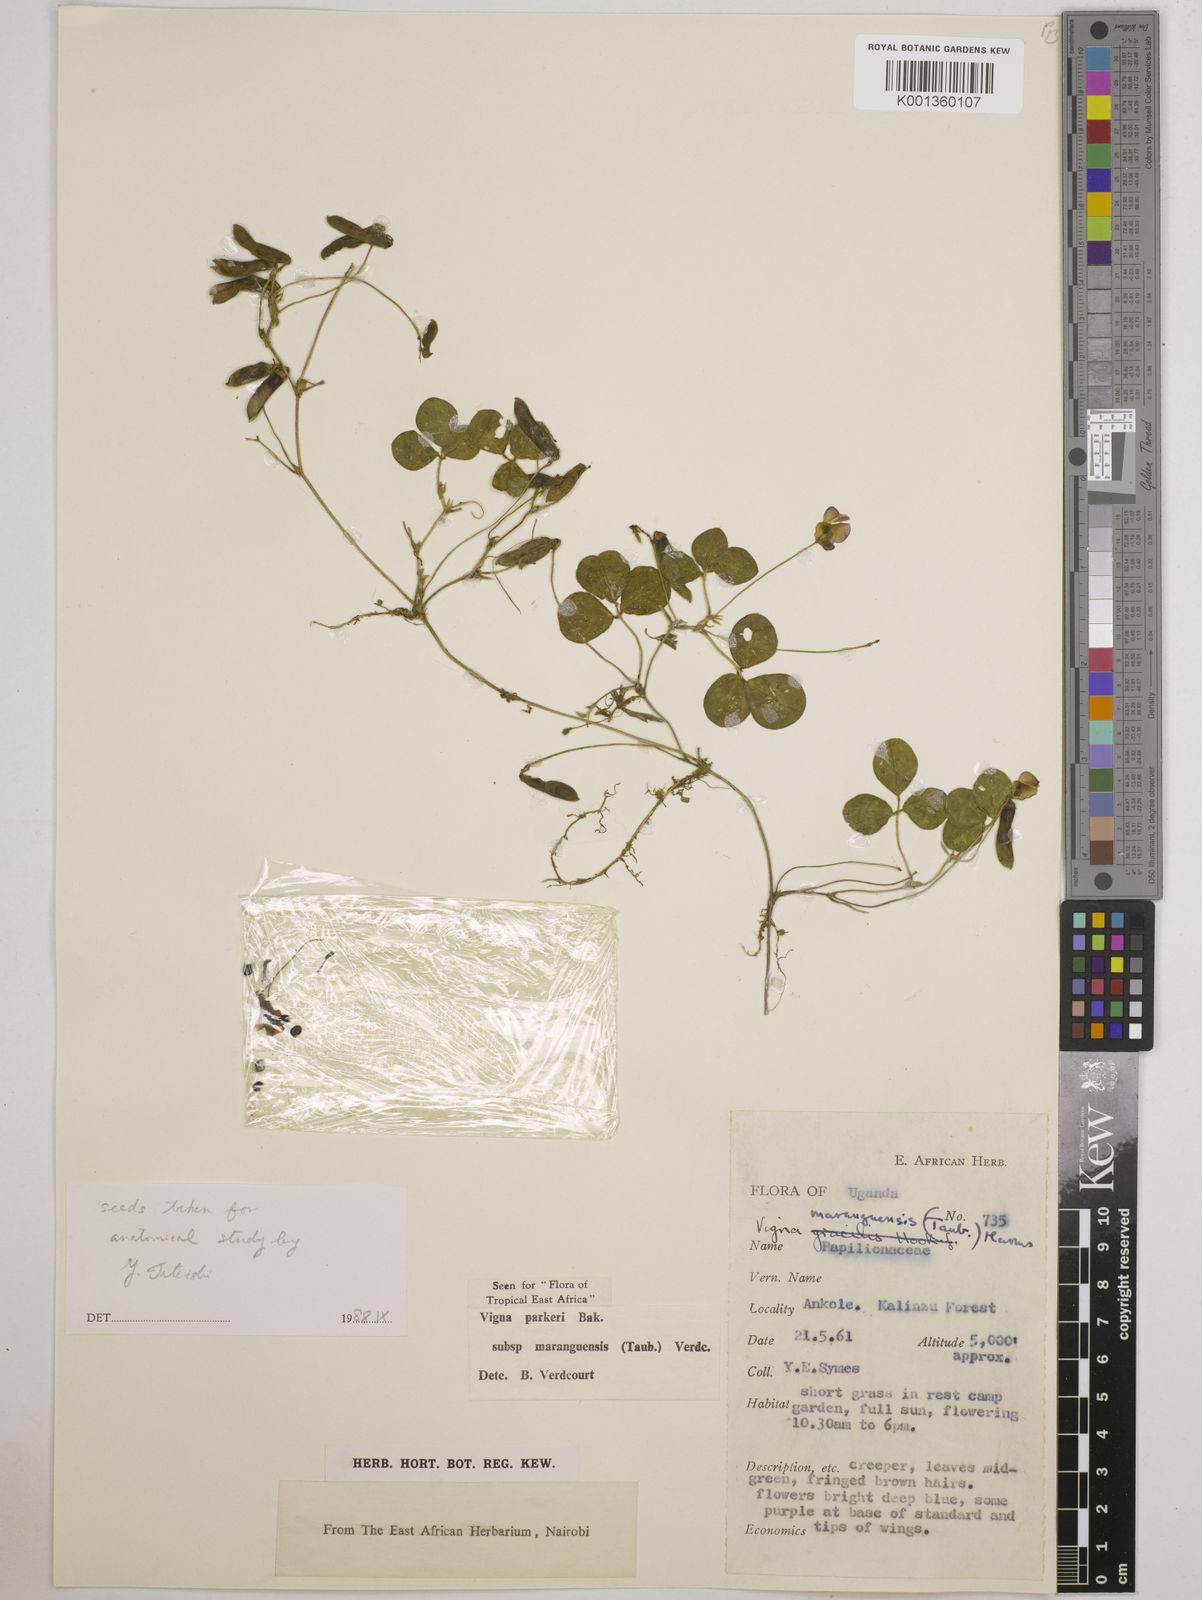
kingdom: Plantae
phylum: Tracheophyta
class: Magnoliopsida
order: Fabales
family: Fabaceae
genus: Vigna
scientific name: Vigna parkeri
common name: Creeping vigna
